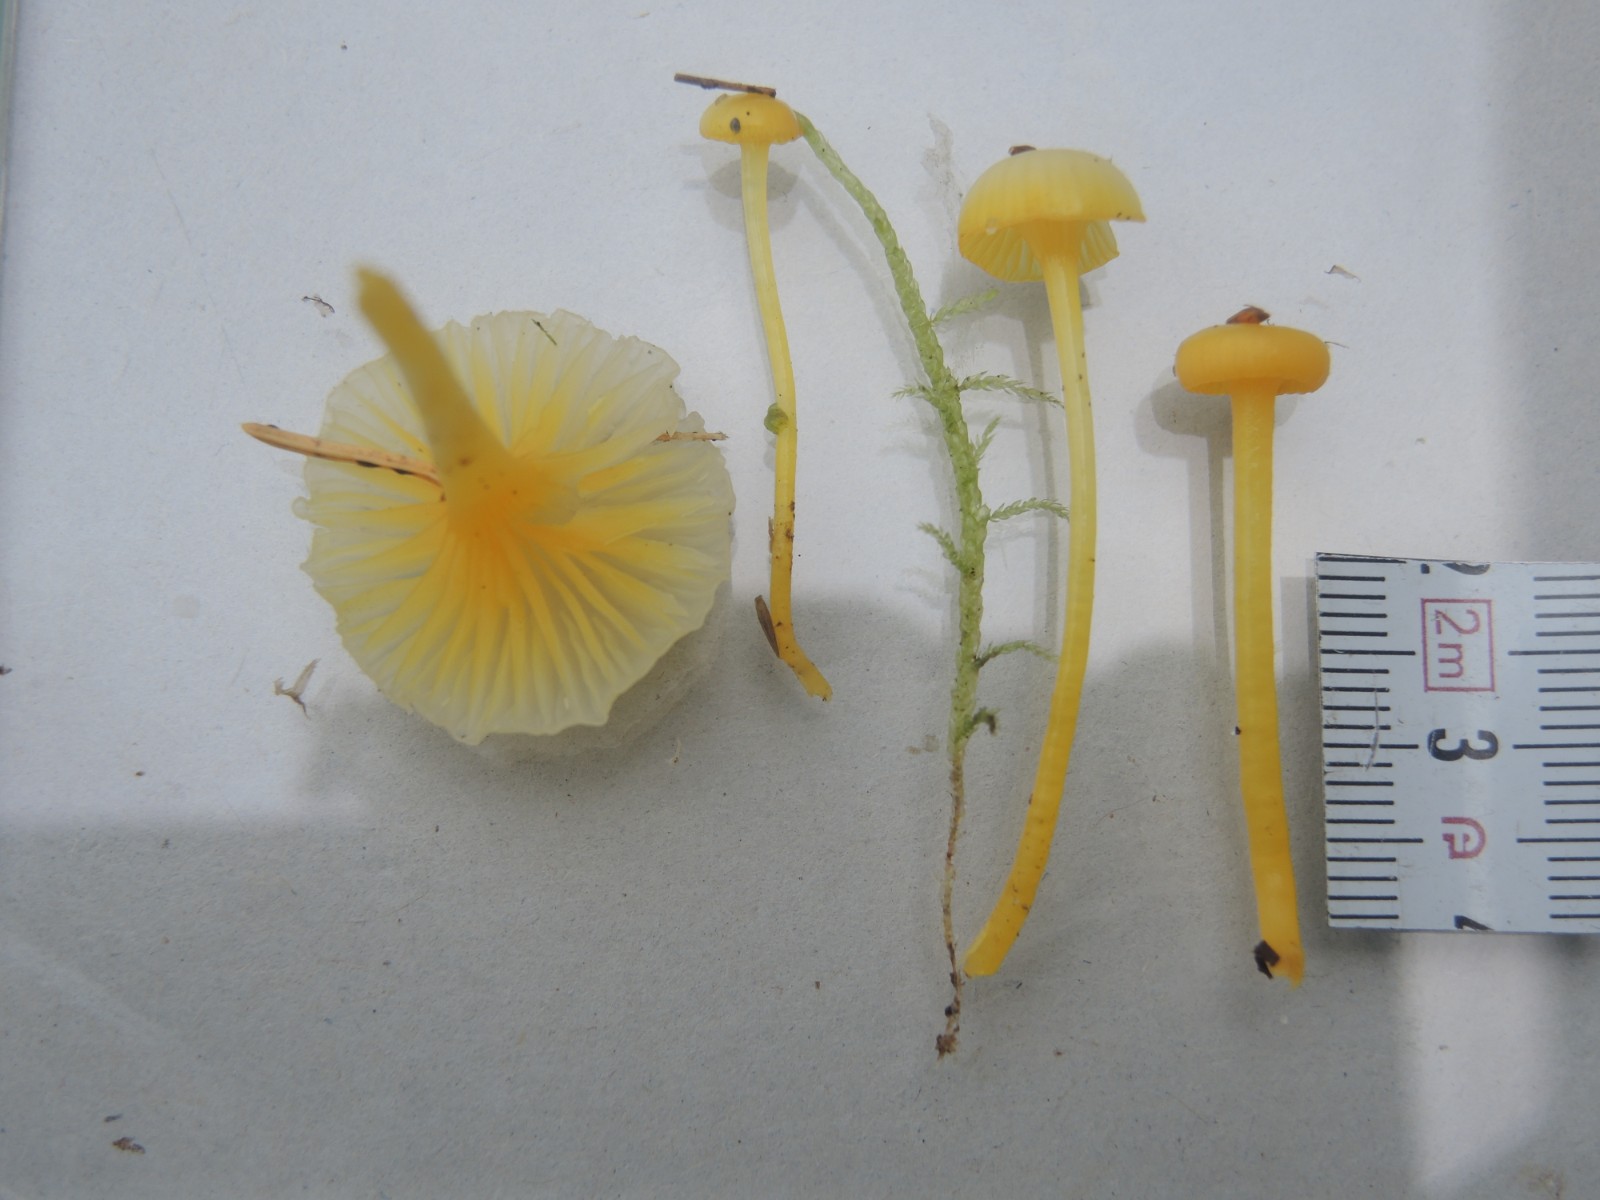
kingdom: Fungi
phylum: Basidiomycota
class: Agaricomycetes
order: Agaricales
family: Hygrophoraceae
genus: Gloioxanthomyces
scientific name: Gloioxanthomyces vitellinus
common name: kromgul vokshat
